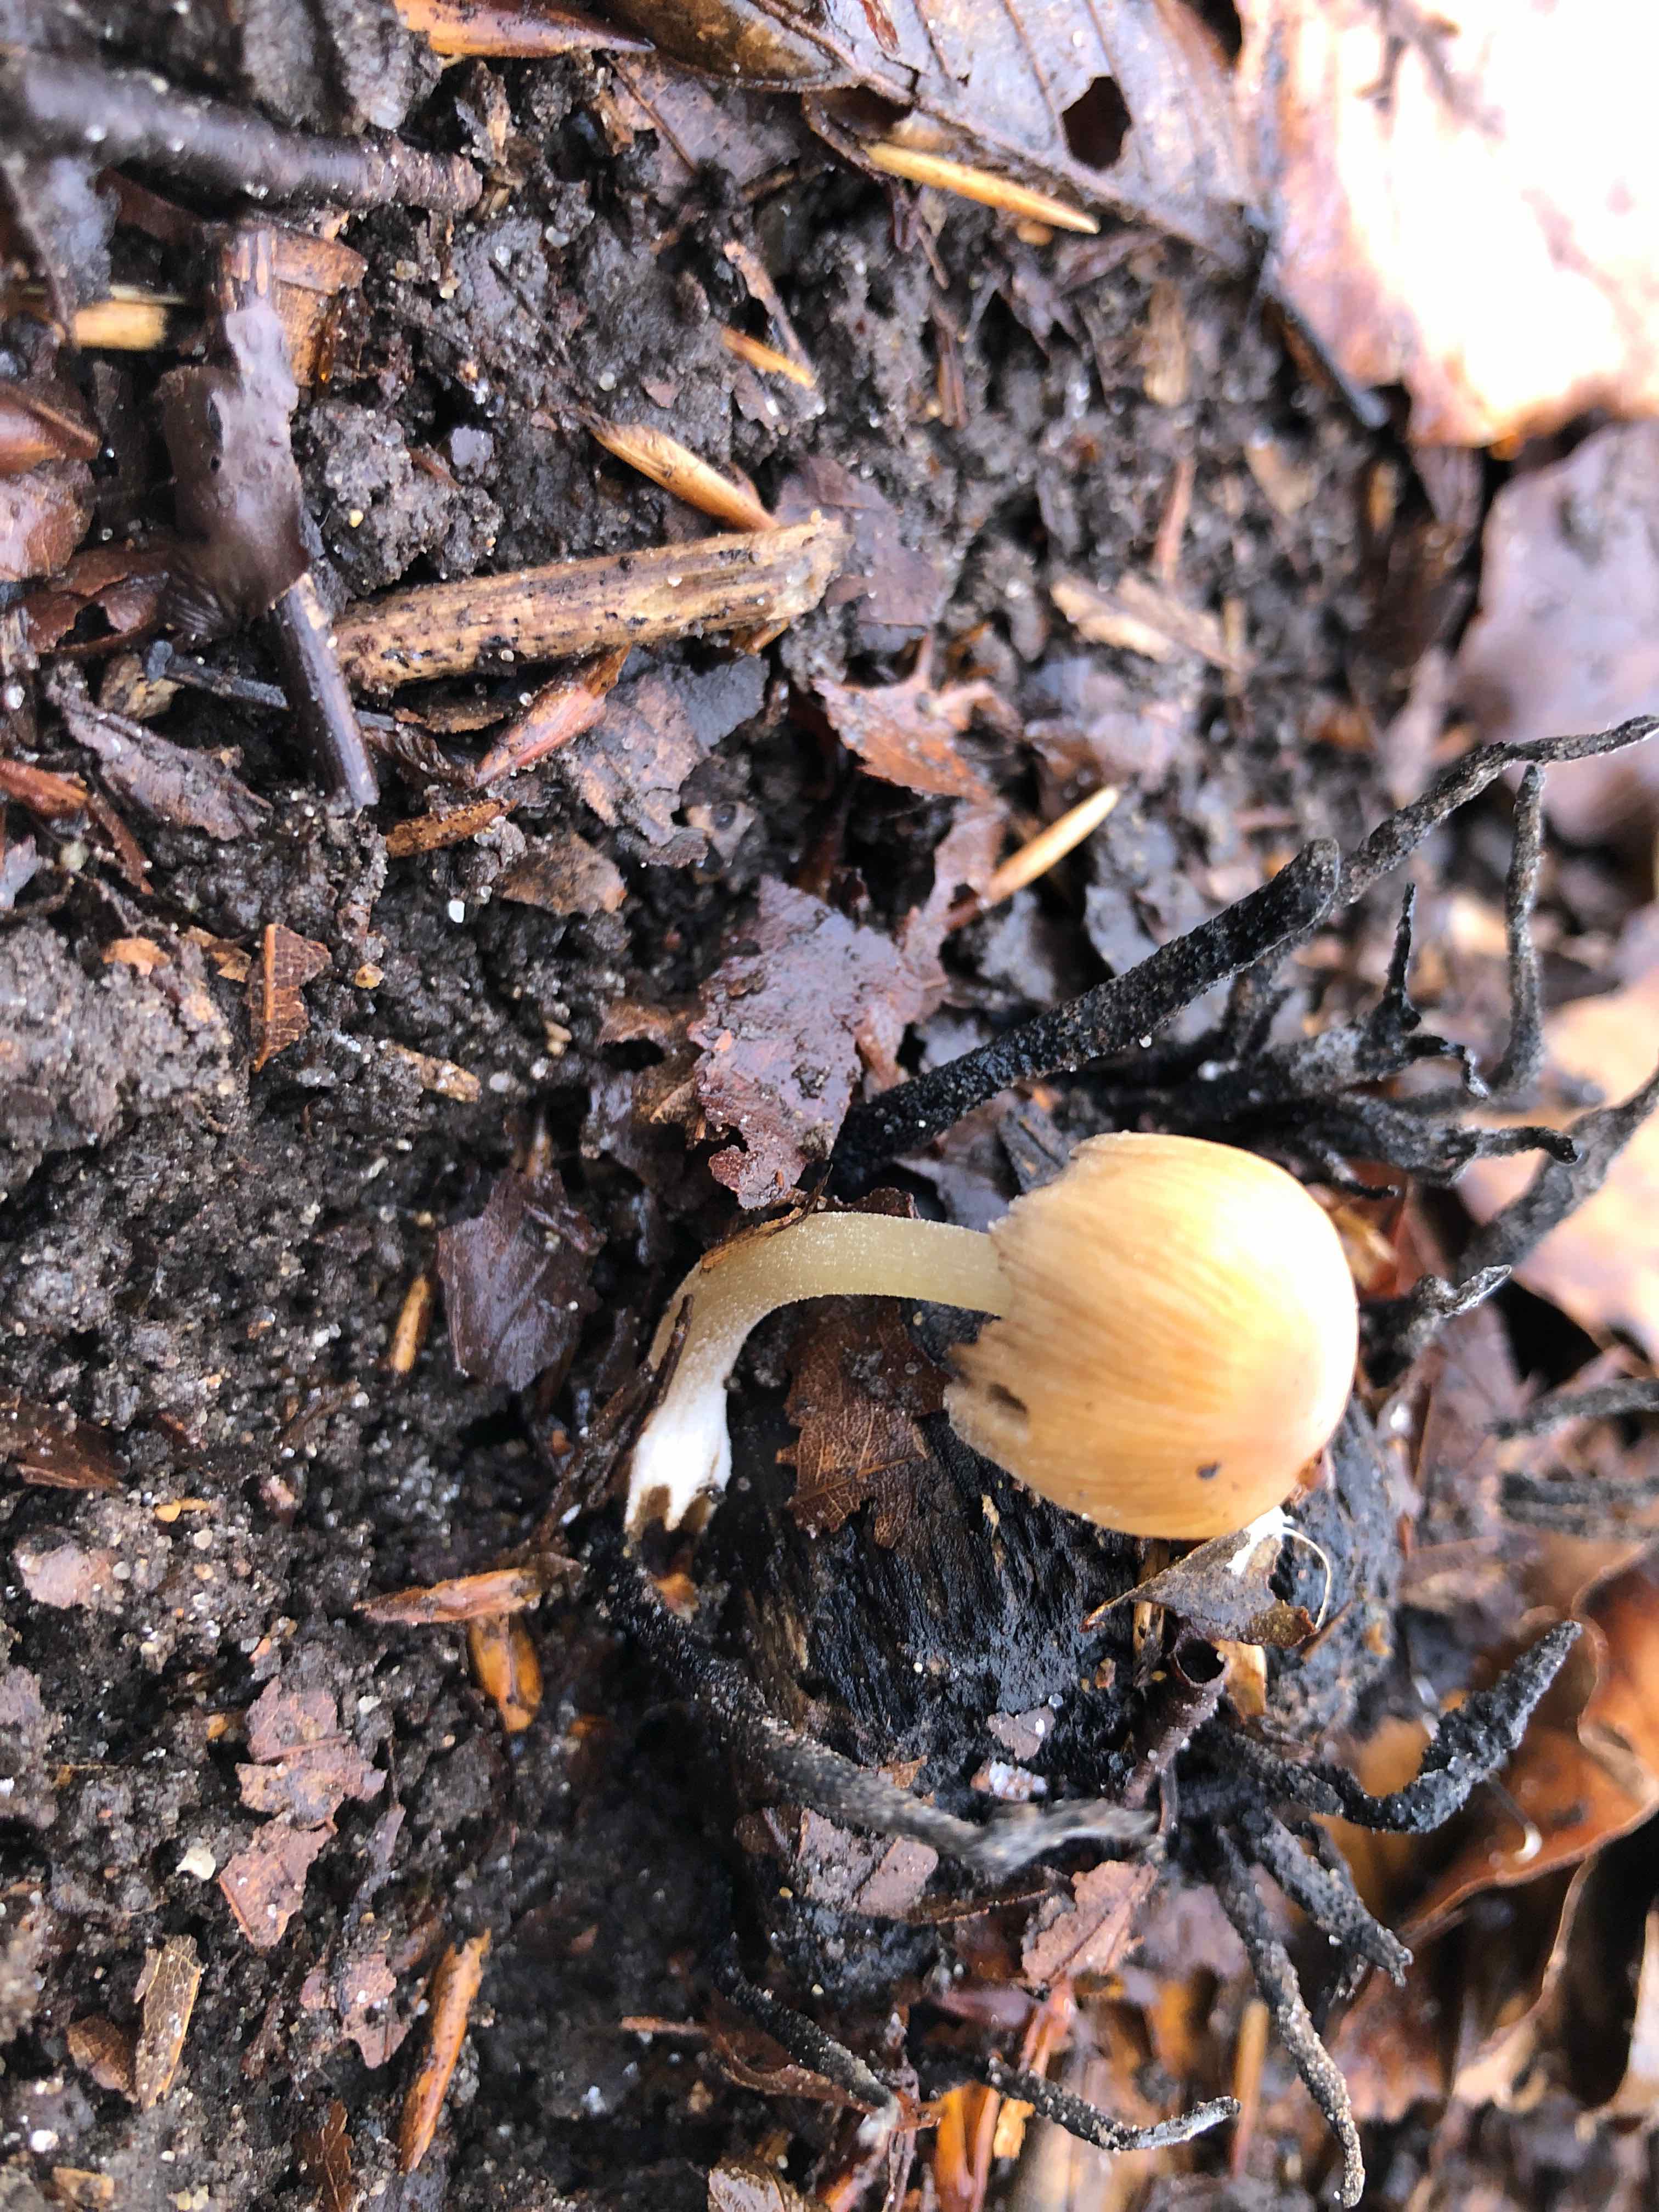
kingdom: Fungi
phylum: Basidiomycota
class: Agaricomycetes
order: Agaricales
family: Psathyrellaceae
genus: Coprinellus
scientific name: Coprinellus micaceus
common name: glimmer-blækhat
